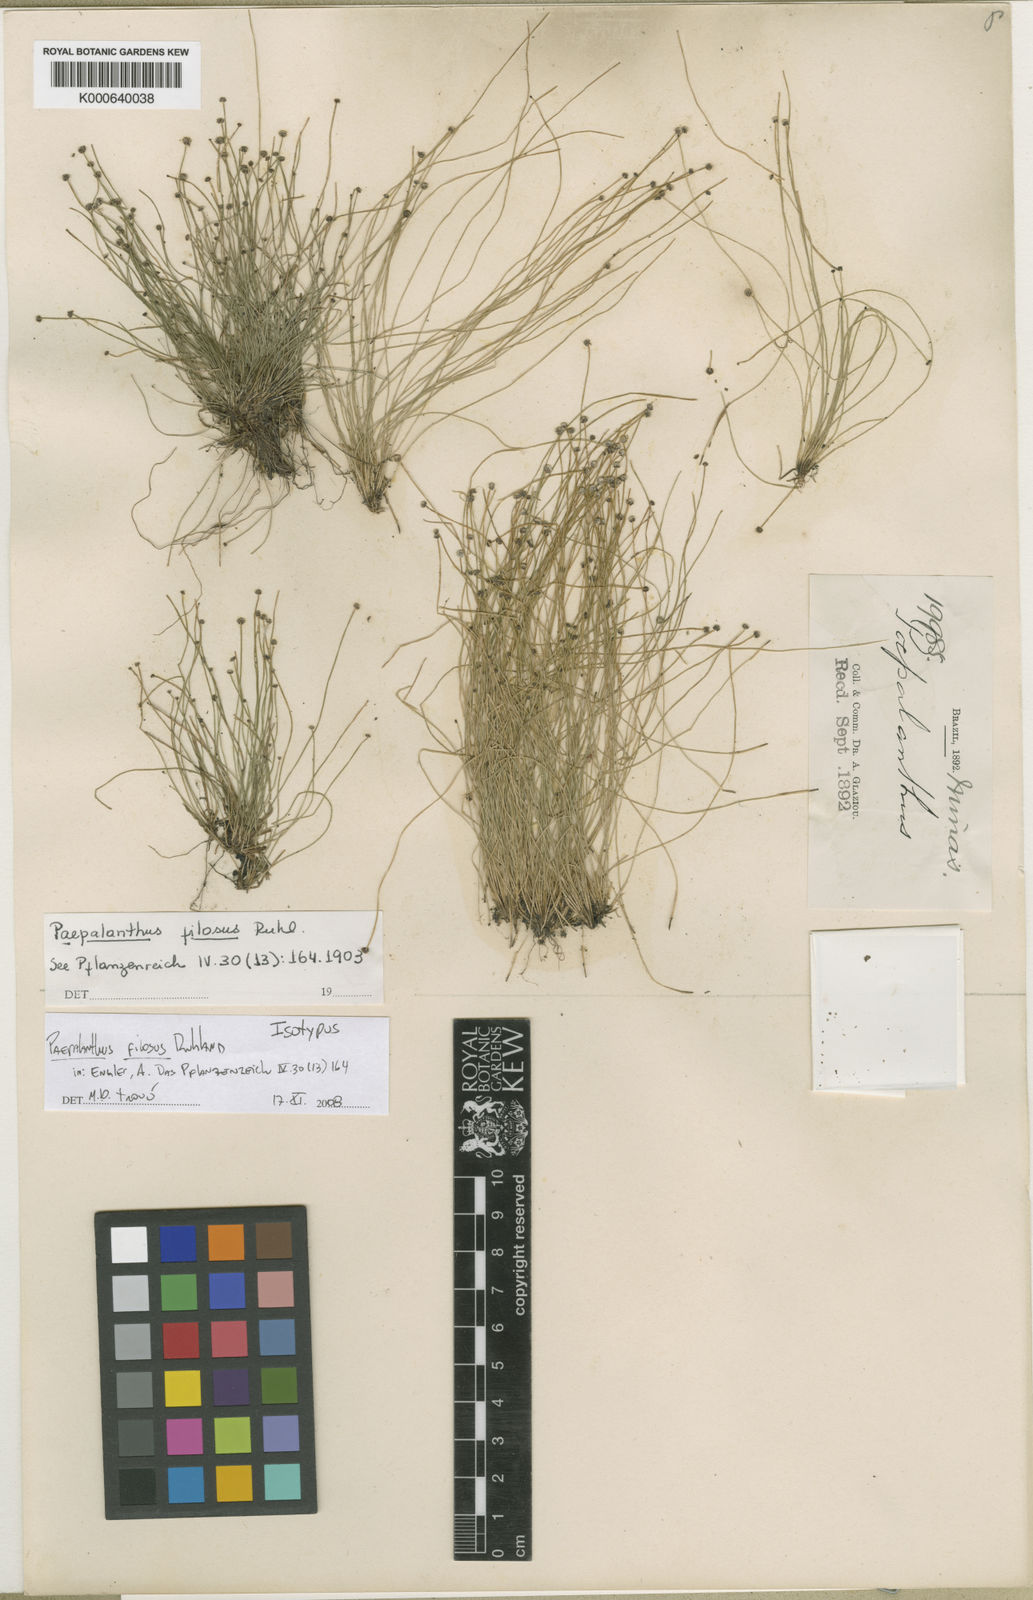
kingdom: Plantae
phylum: Tracheophyta
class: Liliopsida
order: Poales
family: Eriocaulaceae
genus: Paepalanthus
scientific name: Paepalanthus scirpeus
